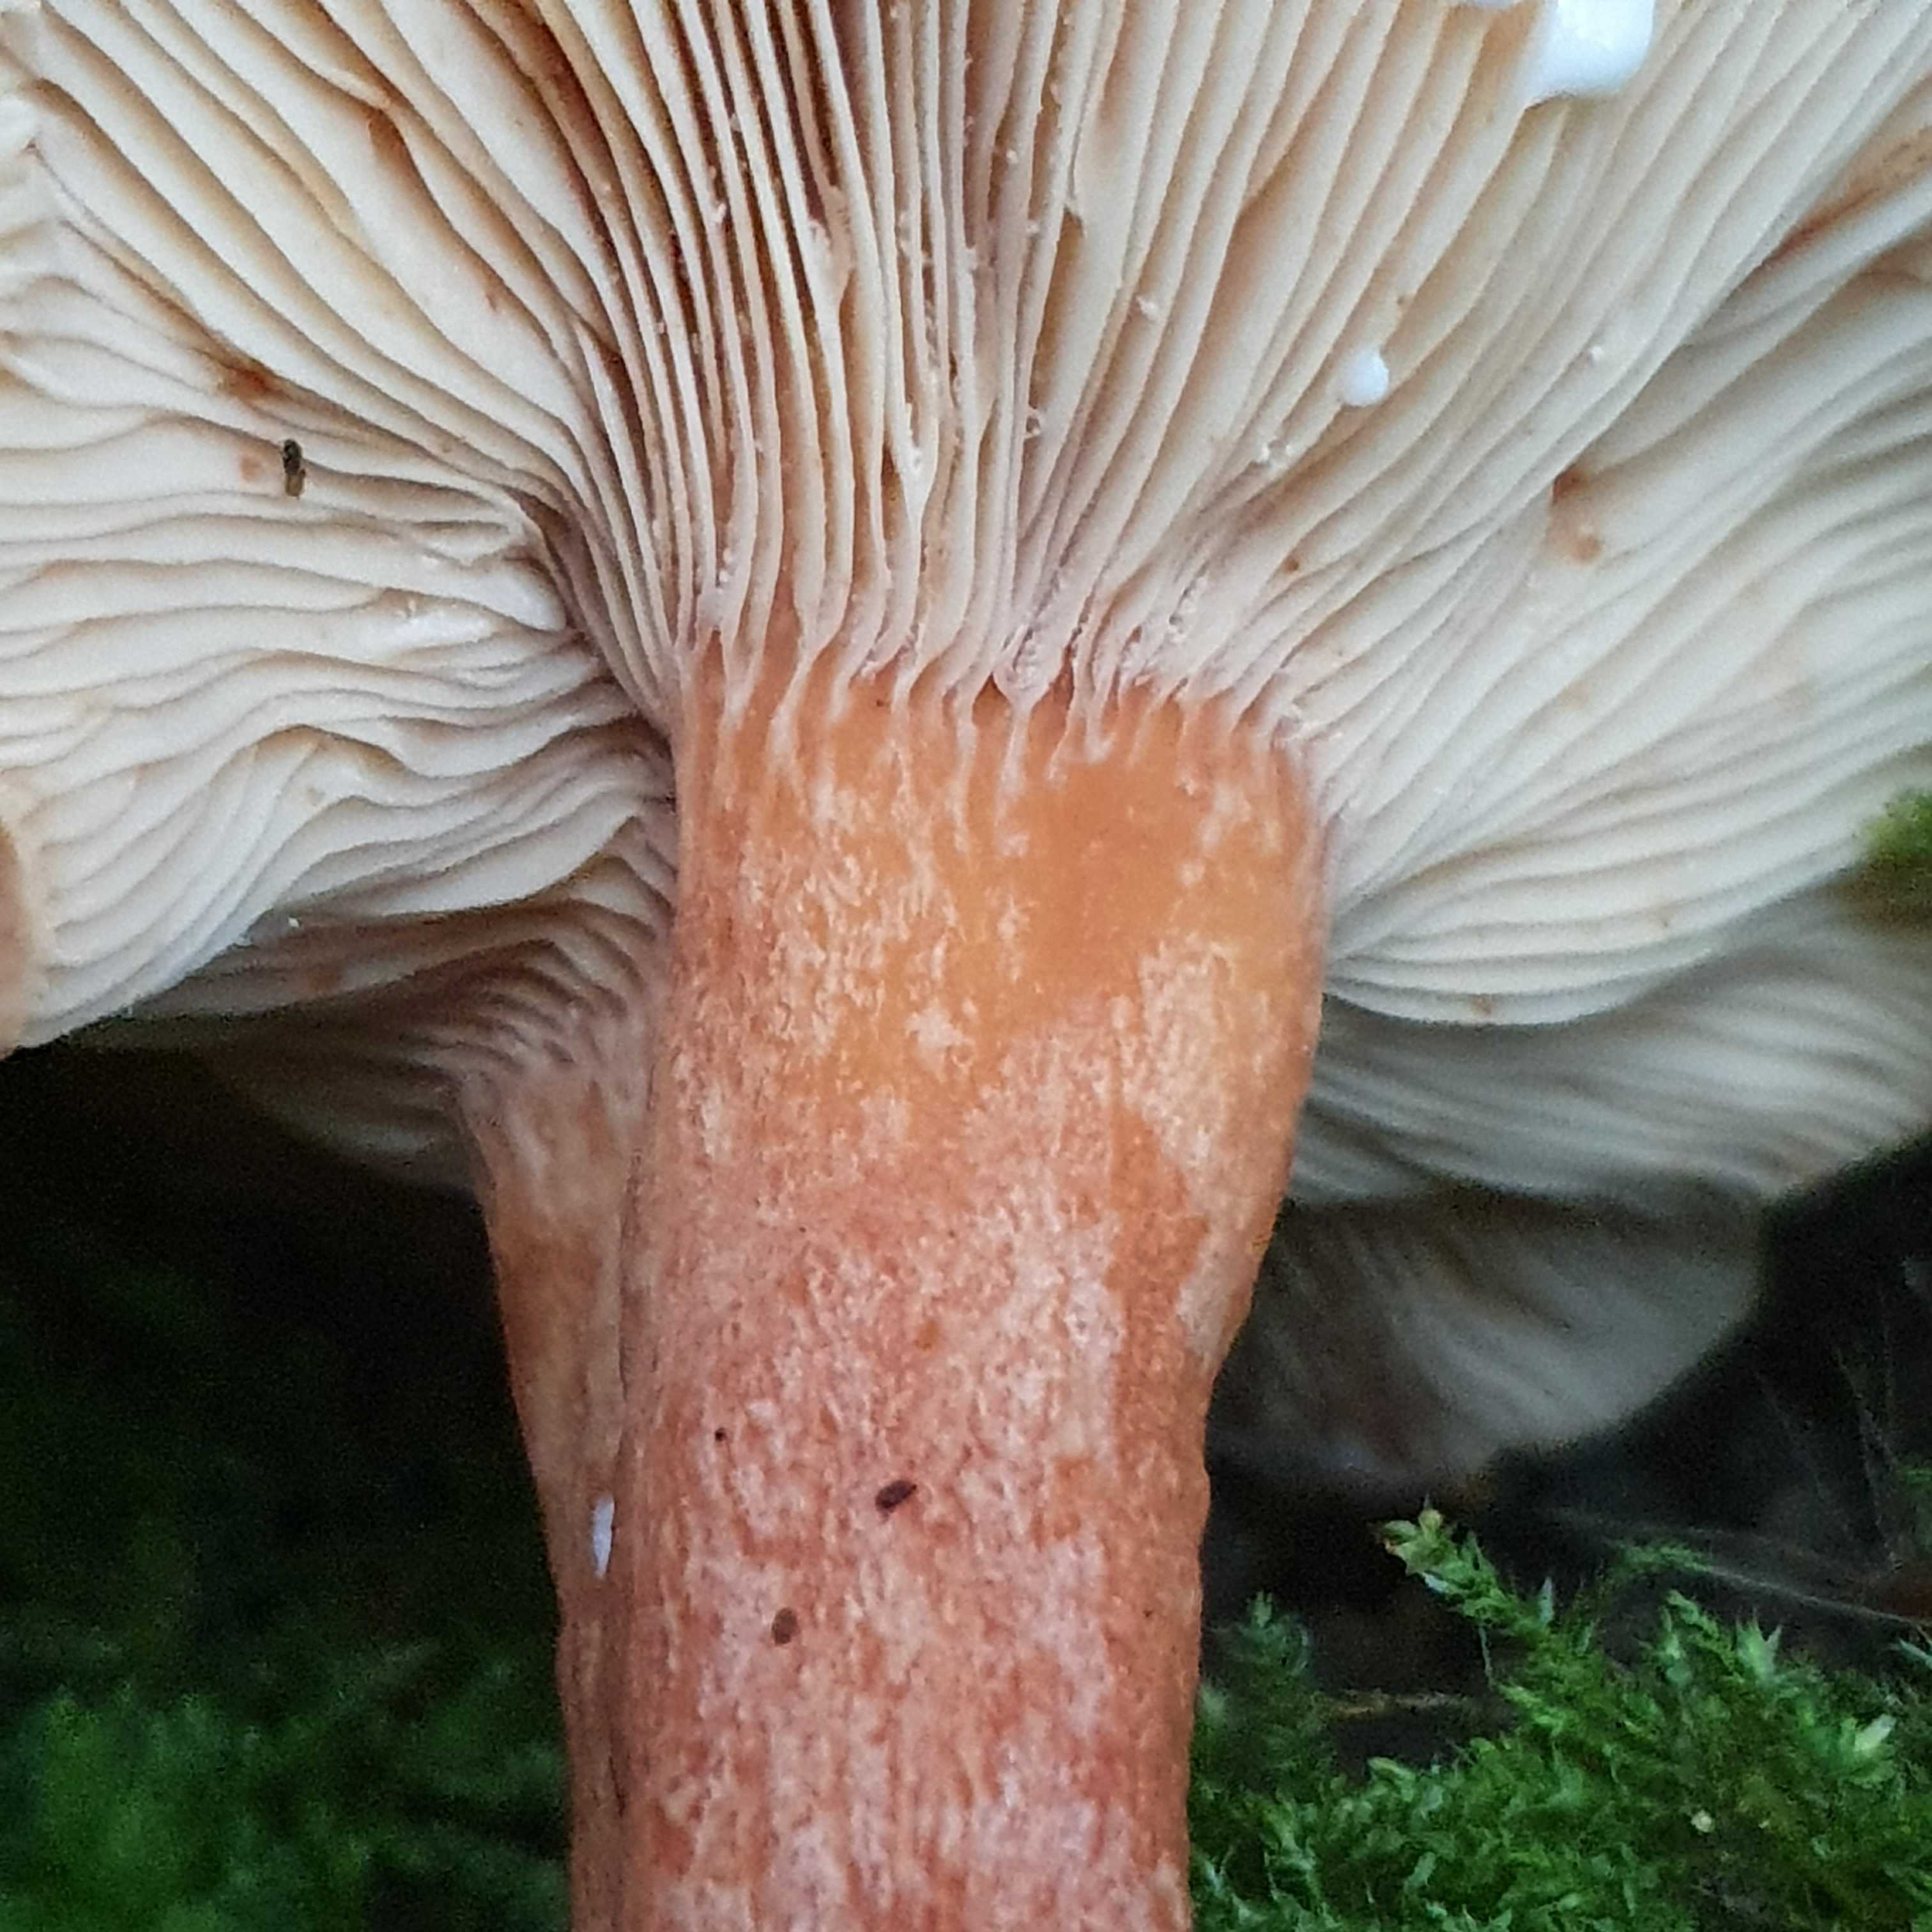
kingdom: Fungi
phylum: Basidiomycota
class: Agaricomycetes
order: Russulales
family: Russulaceae
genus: Lactarius
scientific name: Lactarius fulvissimus
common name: ræve-mælkehat
